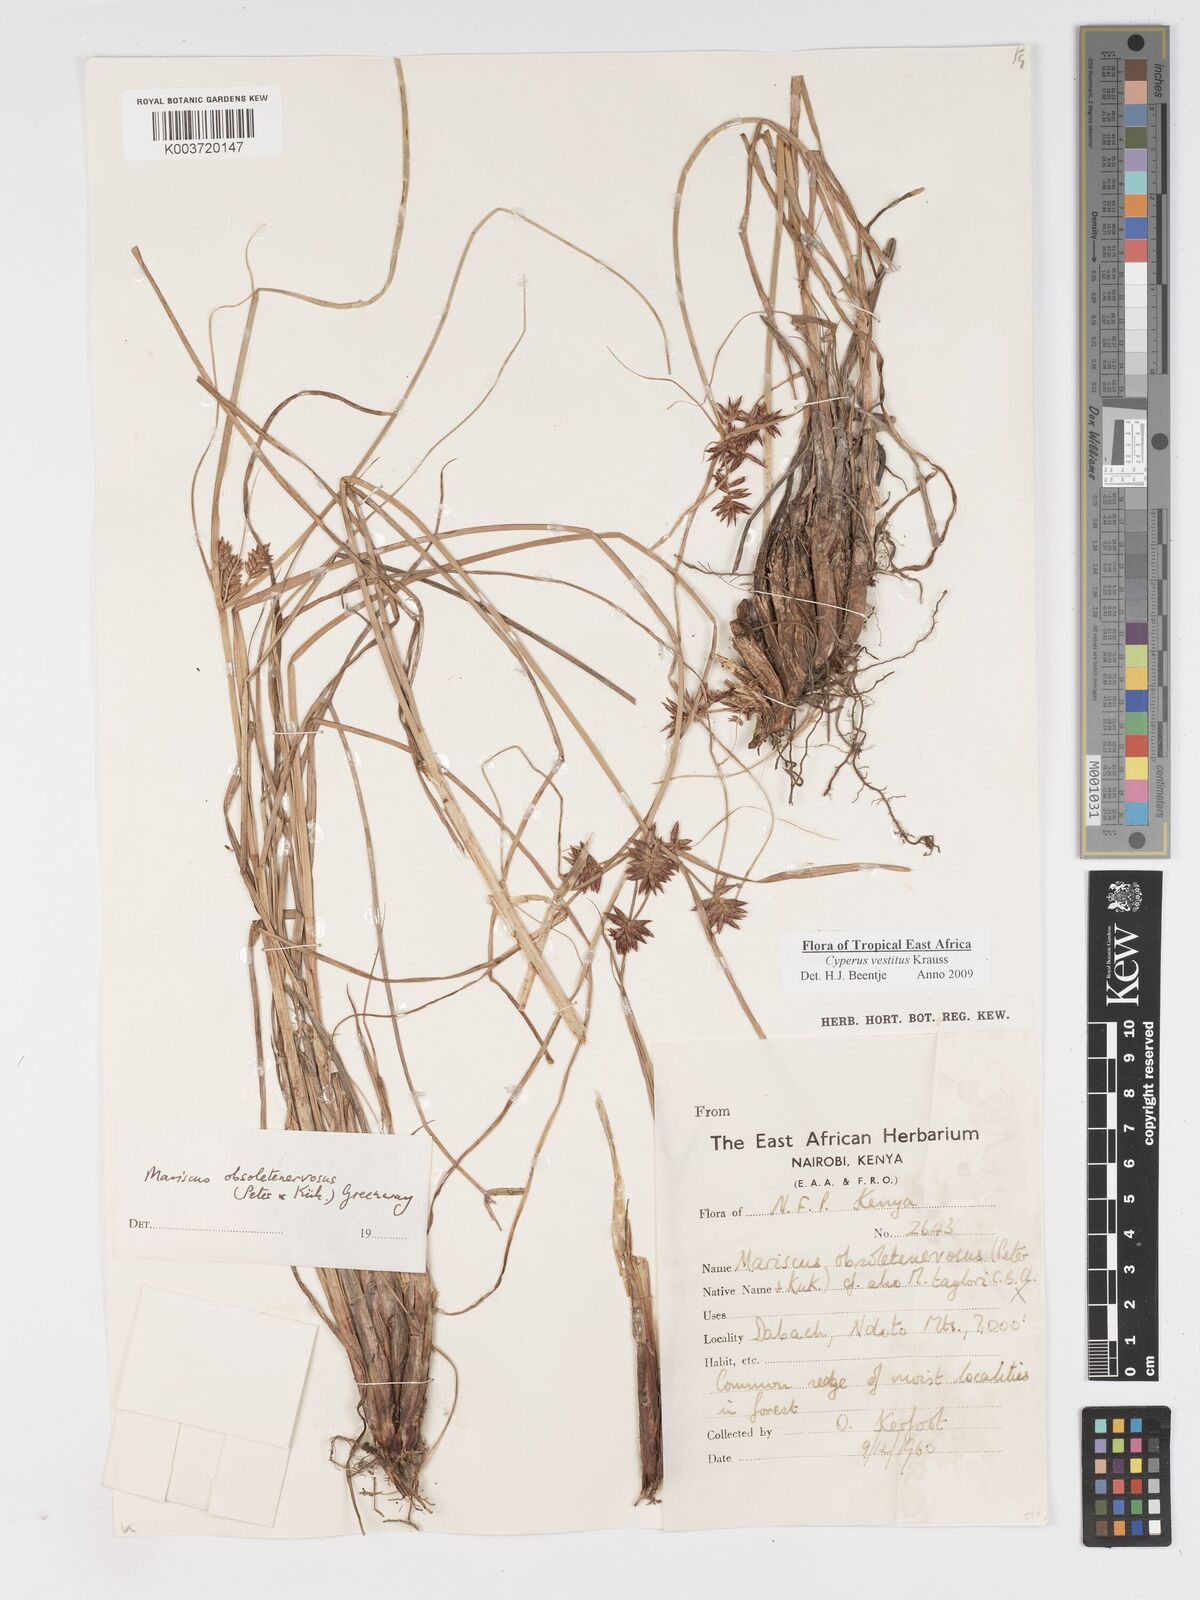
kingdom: Plantae
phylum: Tracheophyta
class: Liliopsida
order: Poales
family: Cyperaceae
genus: Cyperus
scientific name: Cyperus vestitus
